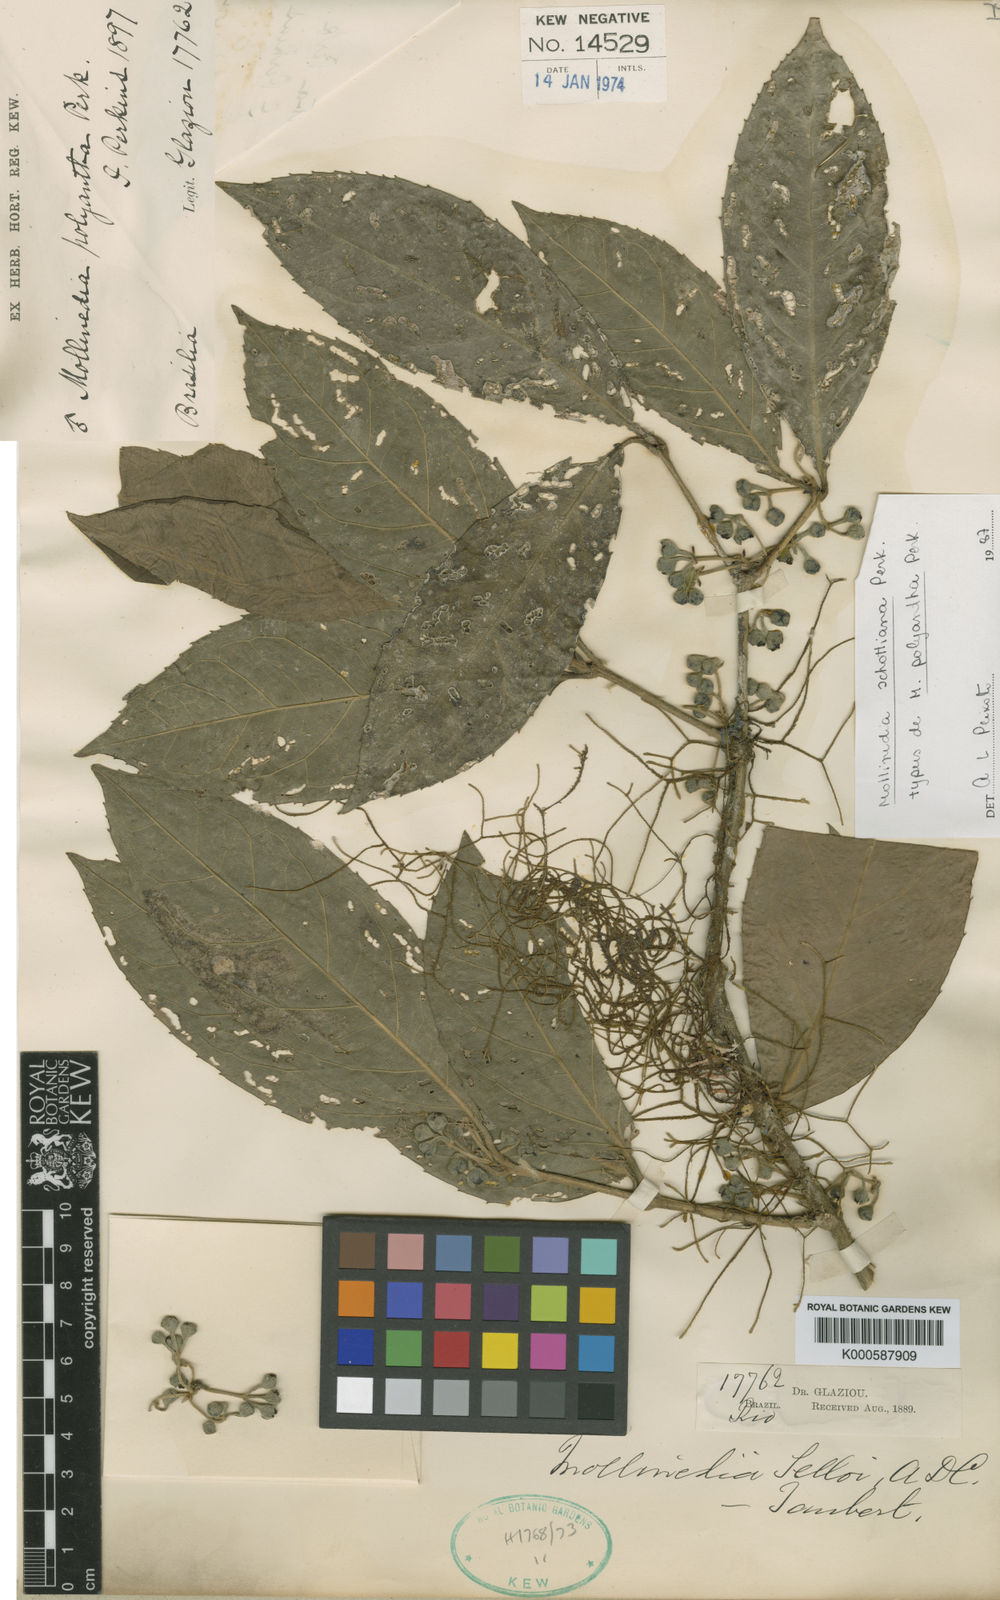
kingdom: Plantae
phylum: Tracheophyta
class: Magnoliopsida
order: Laurales
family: Monimiaceae
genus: Mollinedia
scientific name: Mollinedia umbellata
